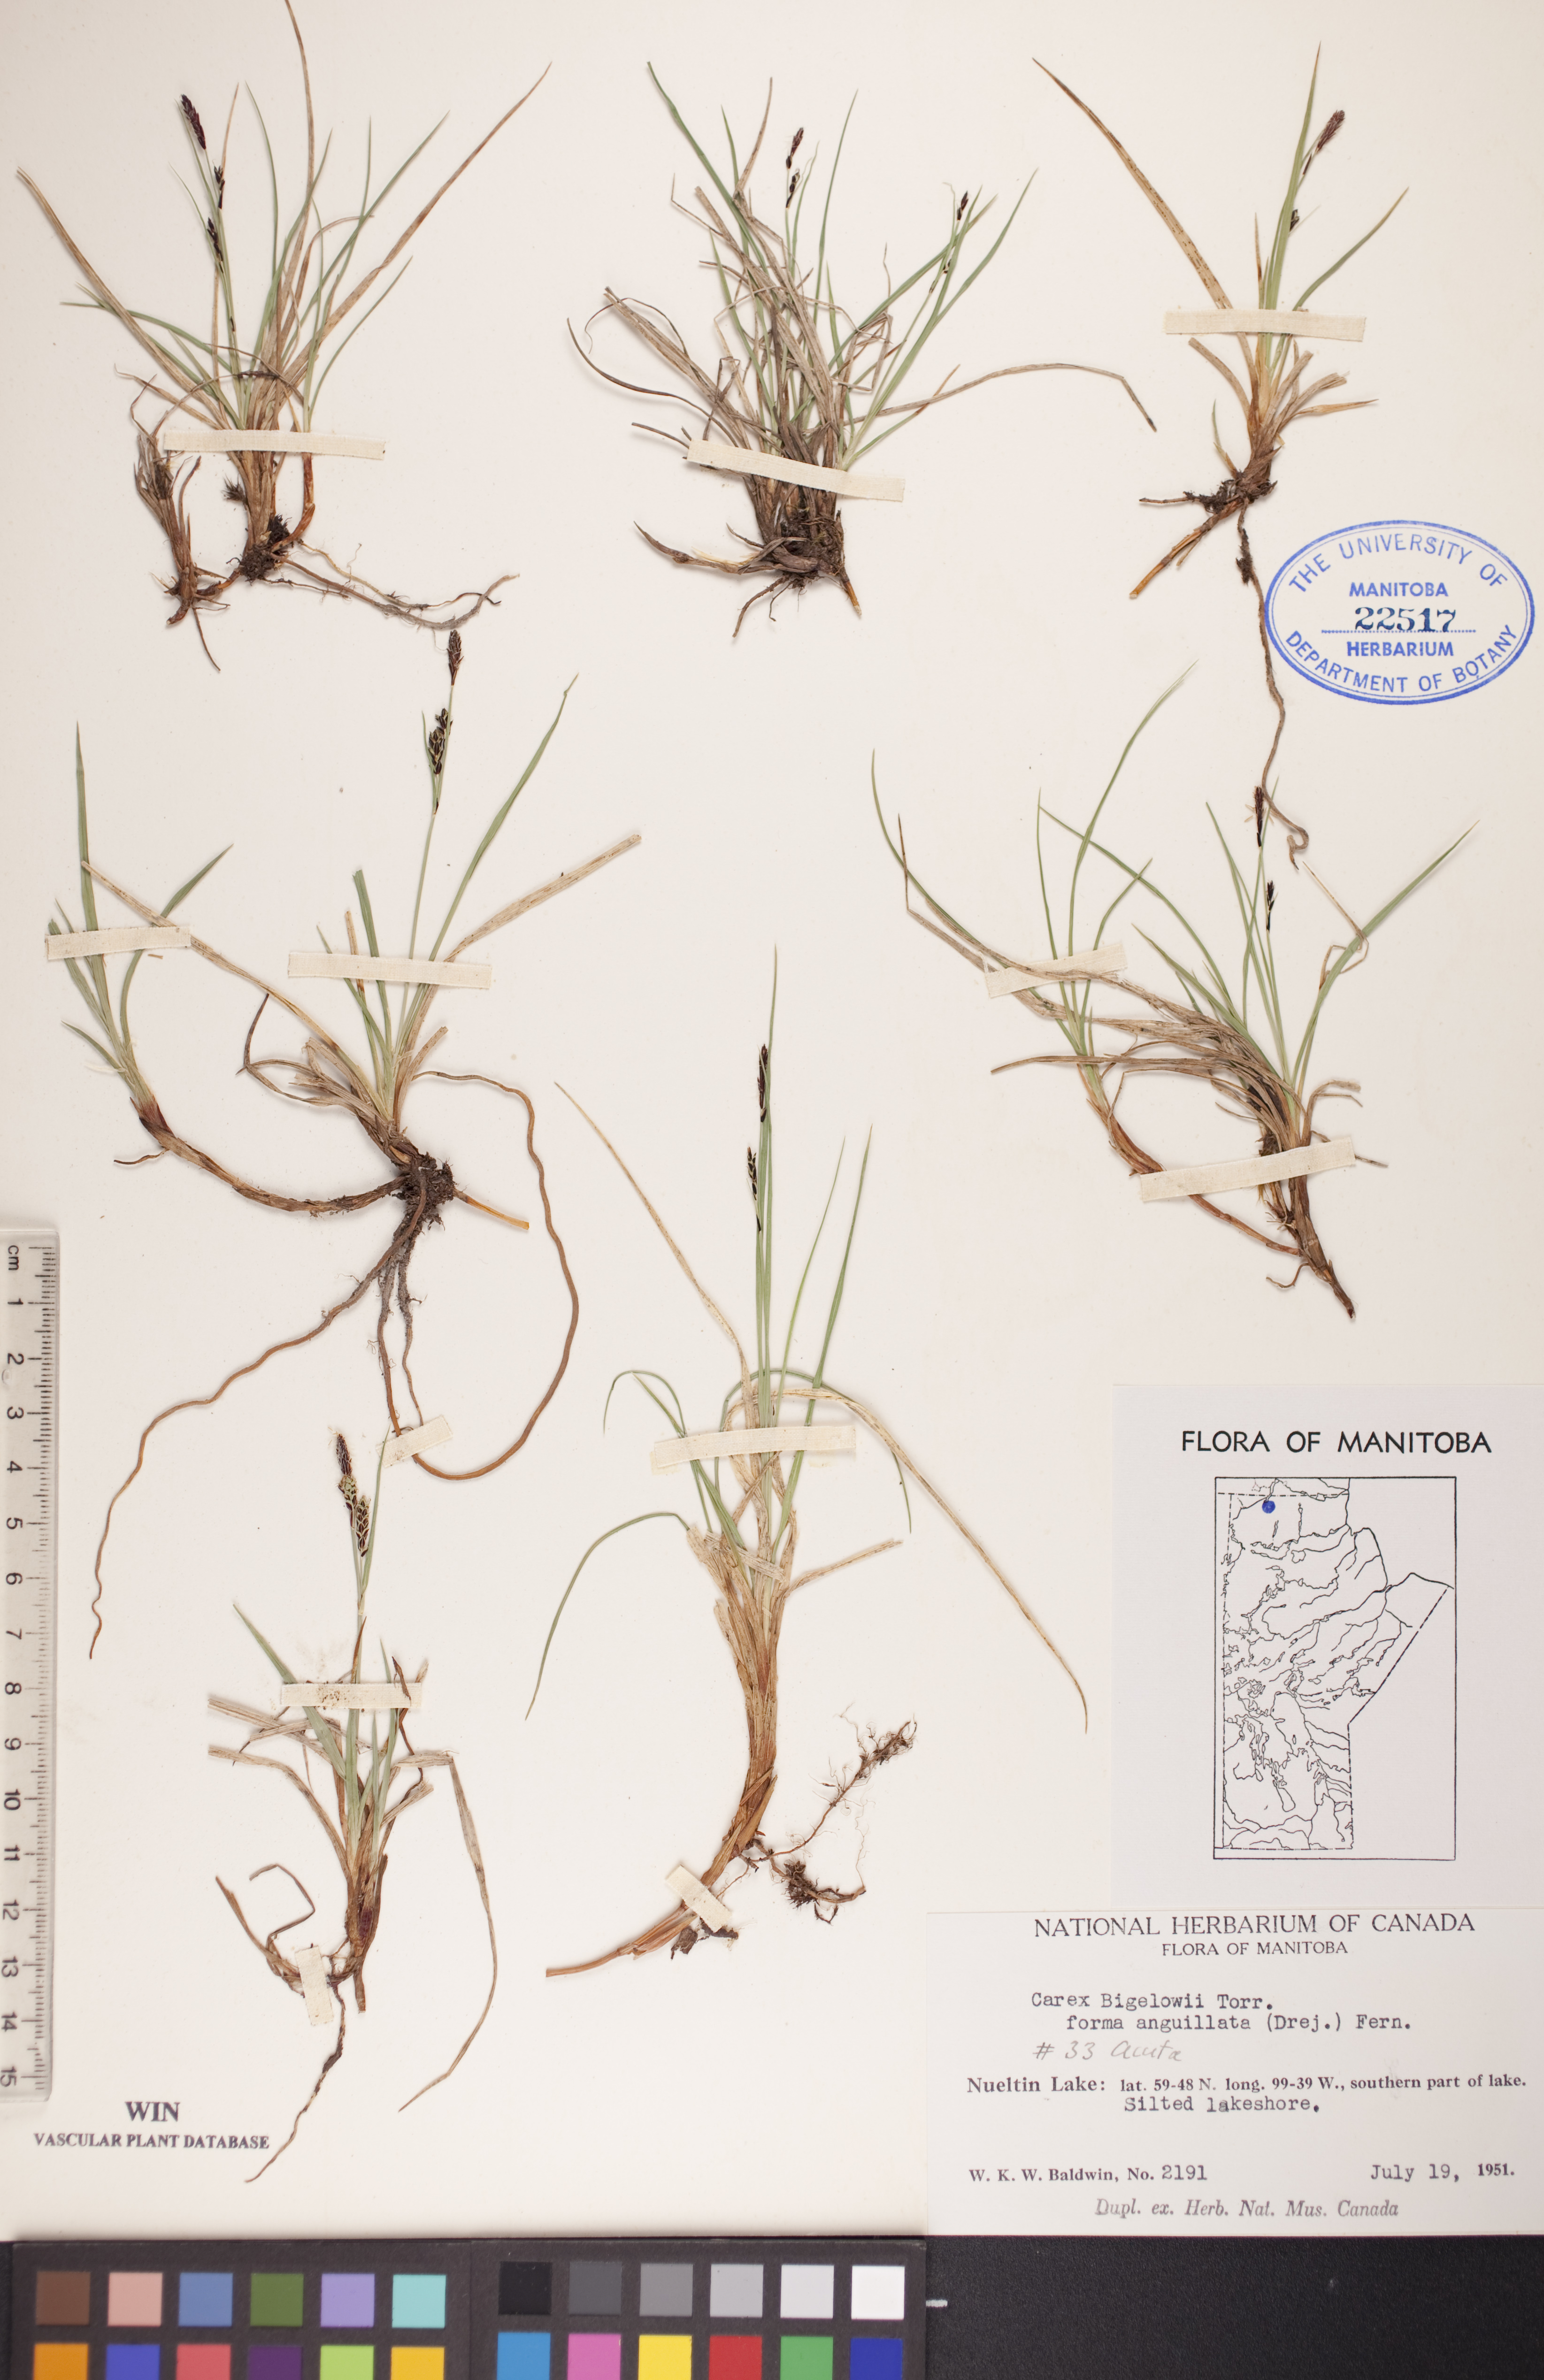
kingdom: Plantae
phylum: Tracheophyta
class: Liliopsida
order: Poales
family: Cyperaceae
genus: Carex
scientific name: Carex bigelowii
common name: Stiff sedge
